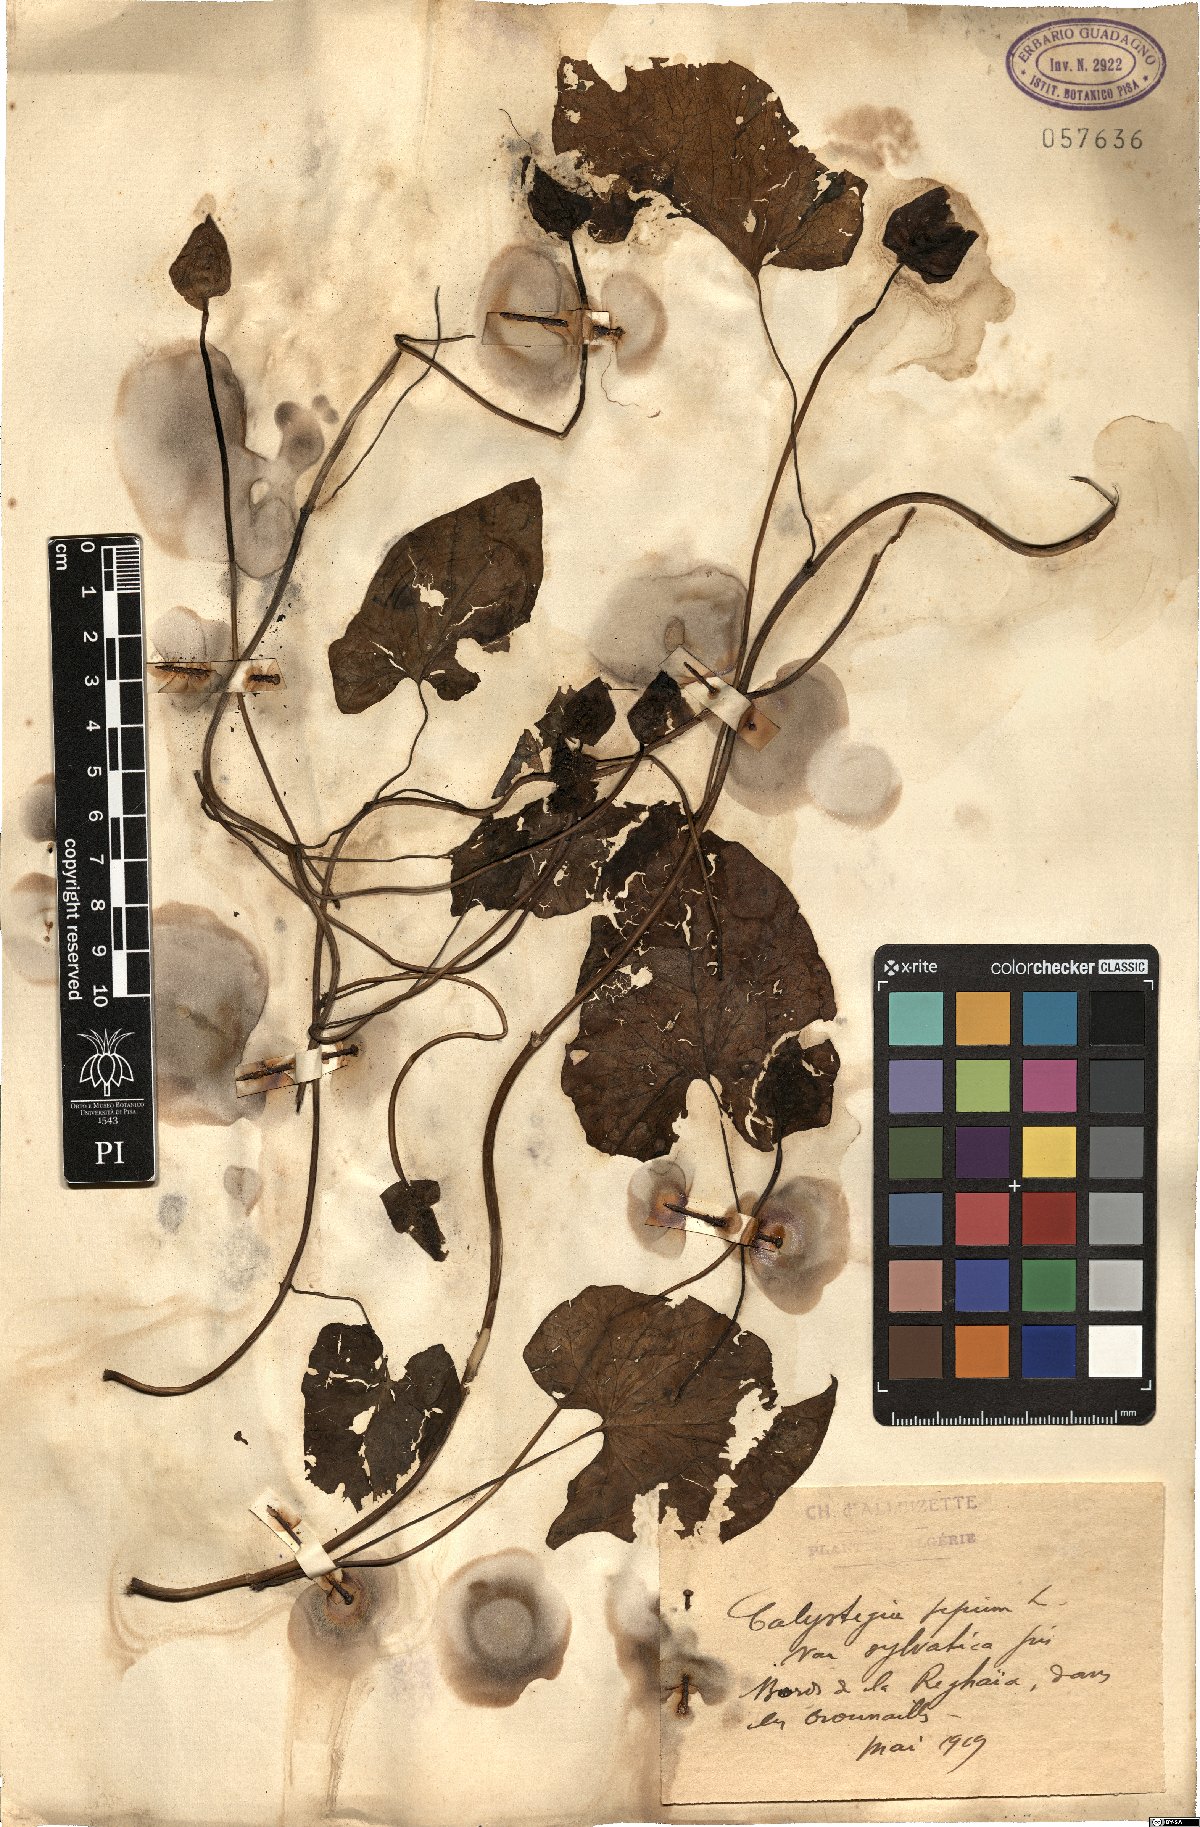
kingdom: Plantae
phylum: Tracheophyta
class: Magnoliopsida
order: Solanales
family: Convolvulaceae
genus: Calystegia
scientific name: Calystegia sepium
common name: Hedge bindweed
